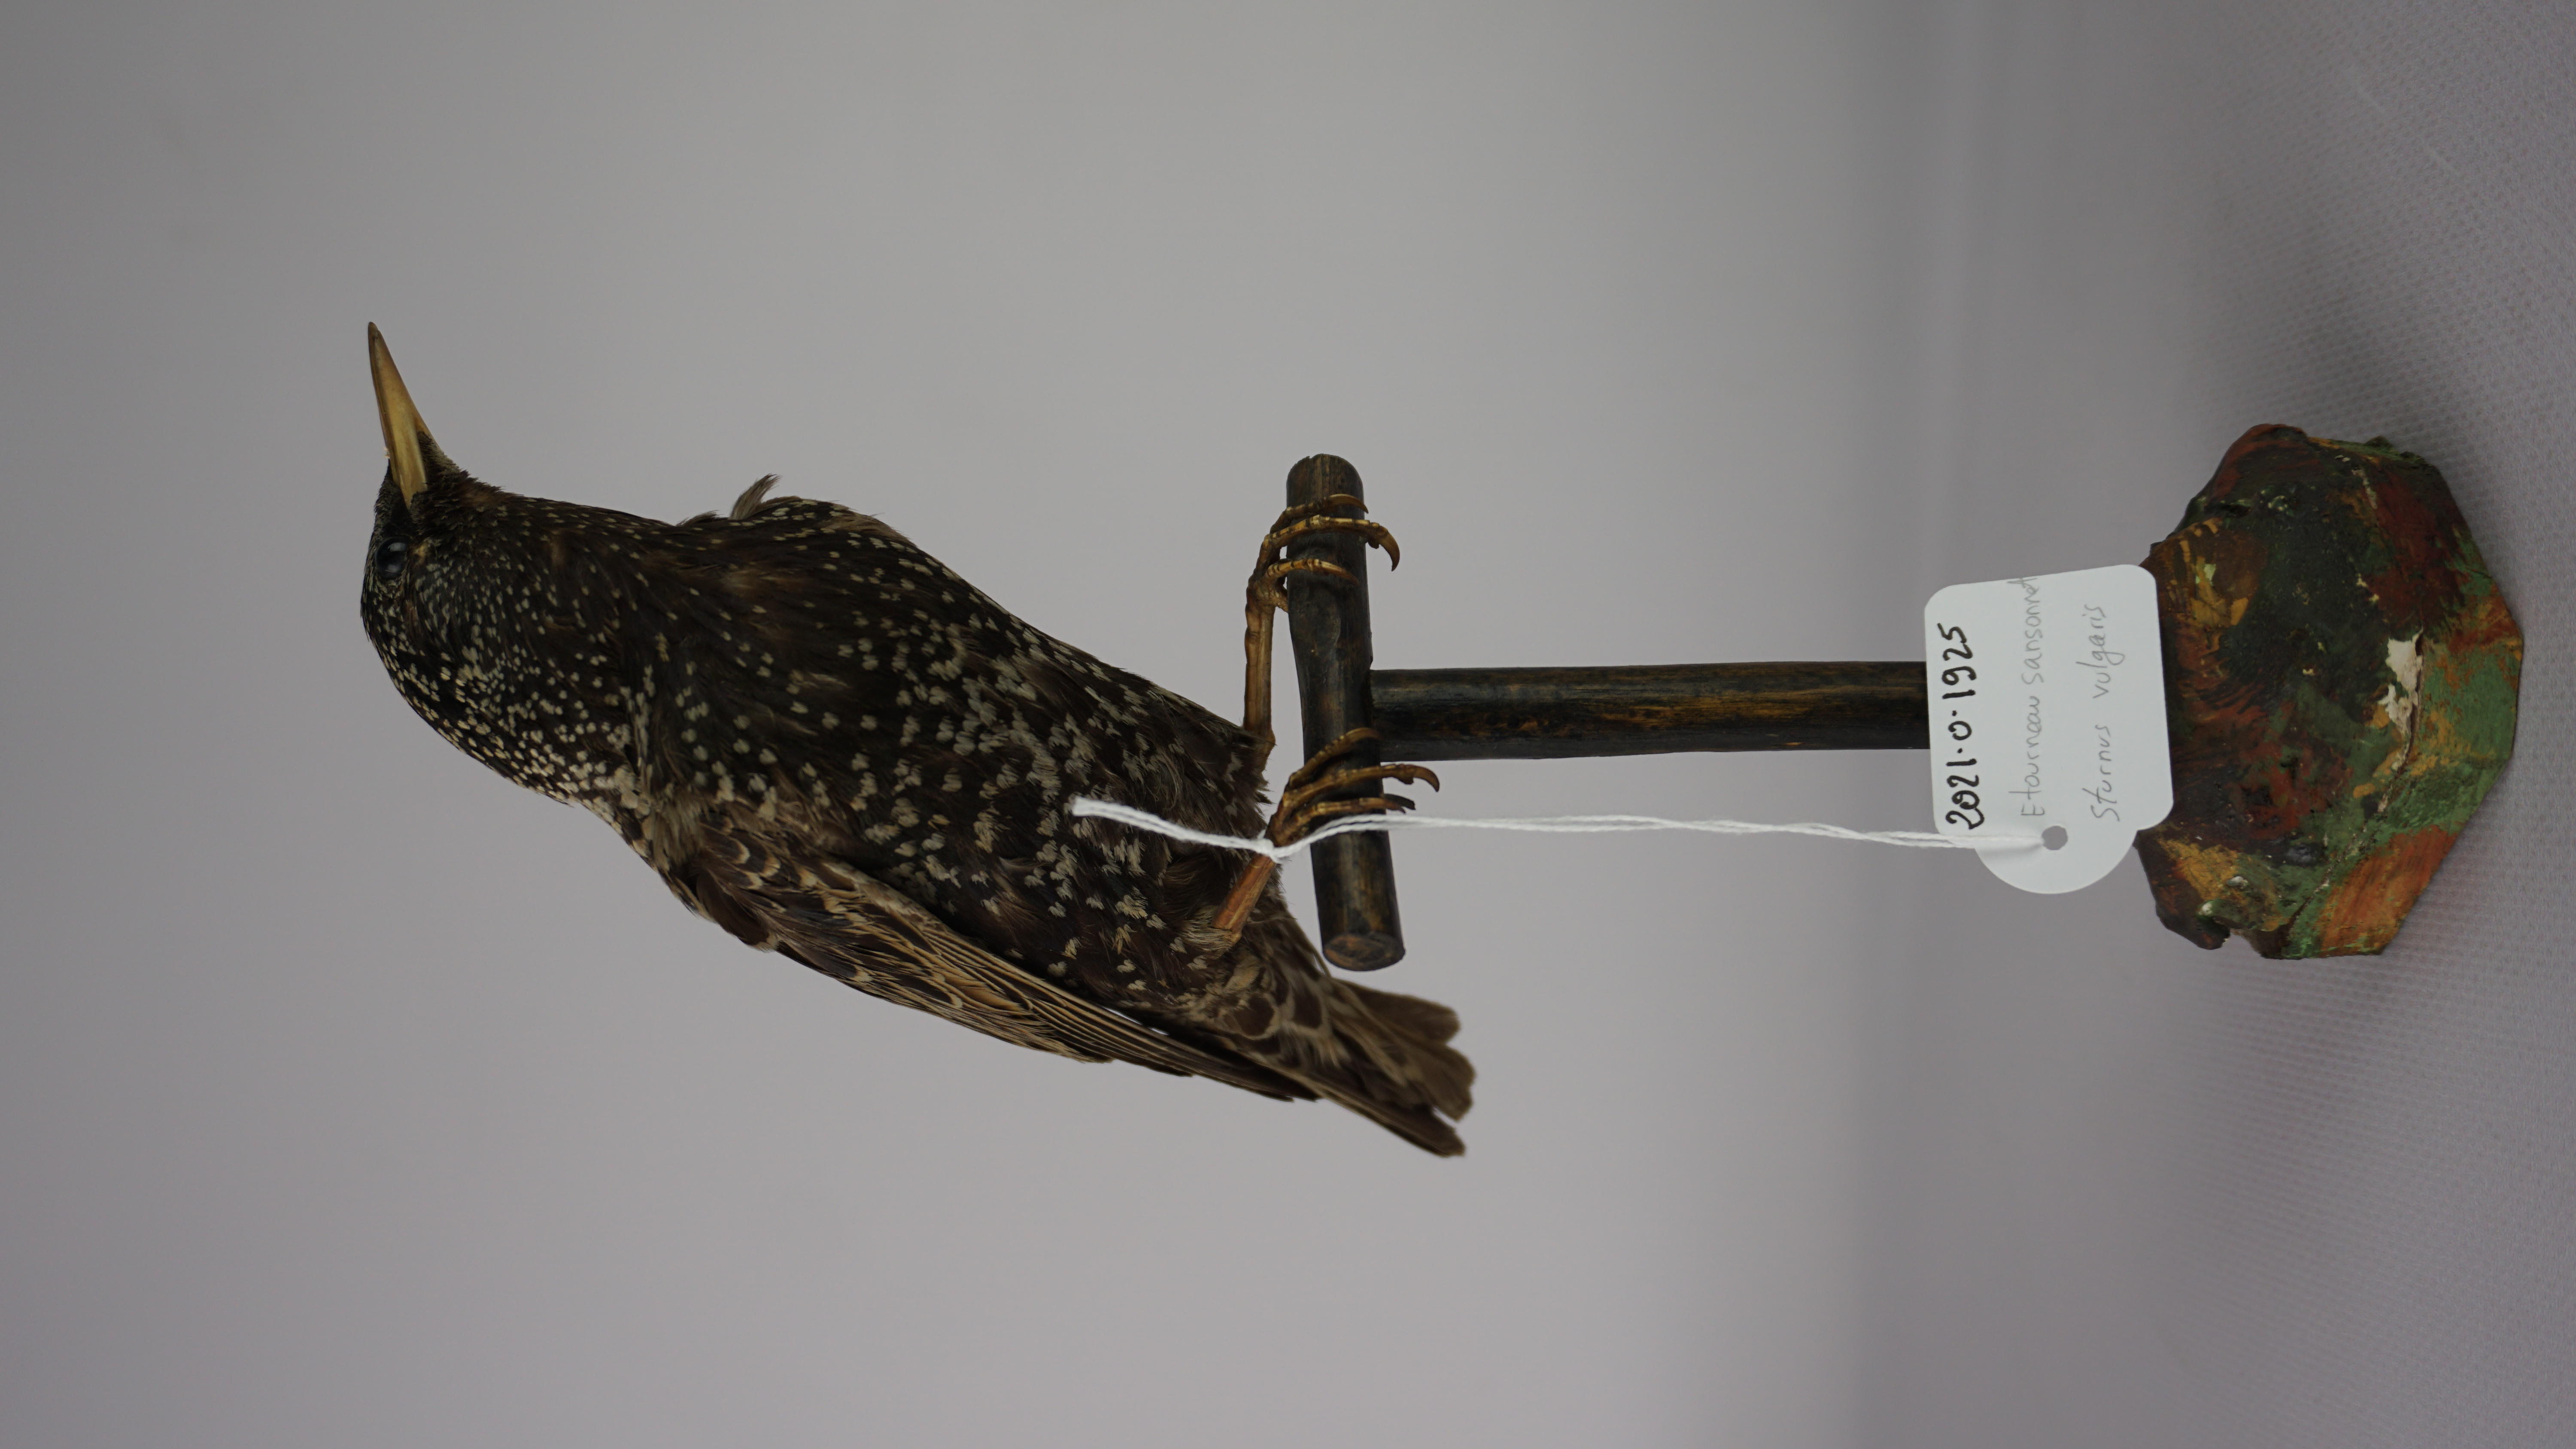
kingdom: Animalia
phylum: Chordata
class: Aves
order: Passeriformes
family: Sturnidae
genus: Sturnus
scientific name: Sturnus vulgaris
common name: Common starling
